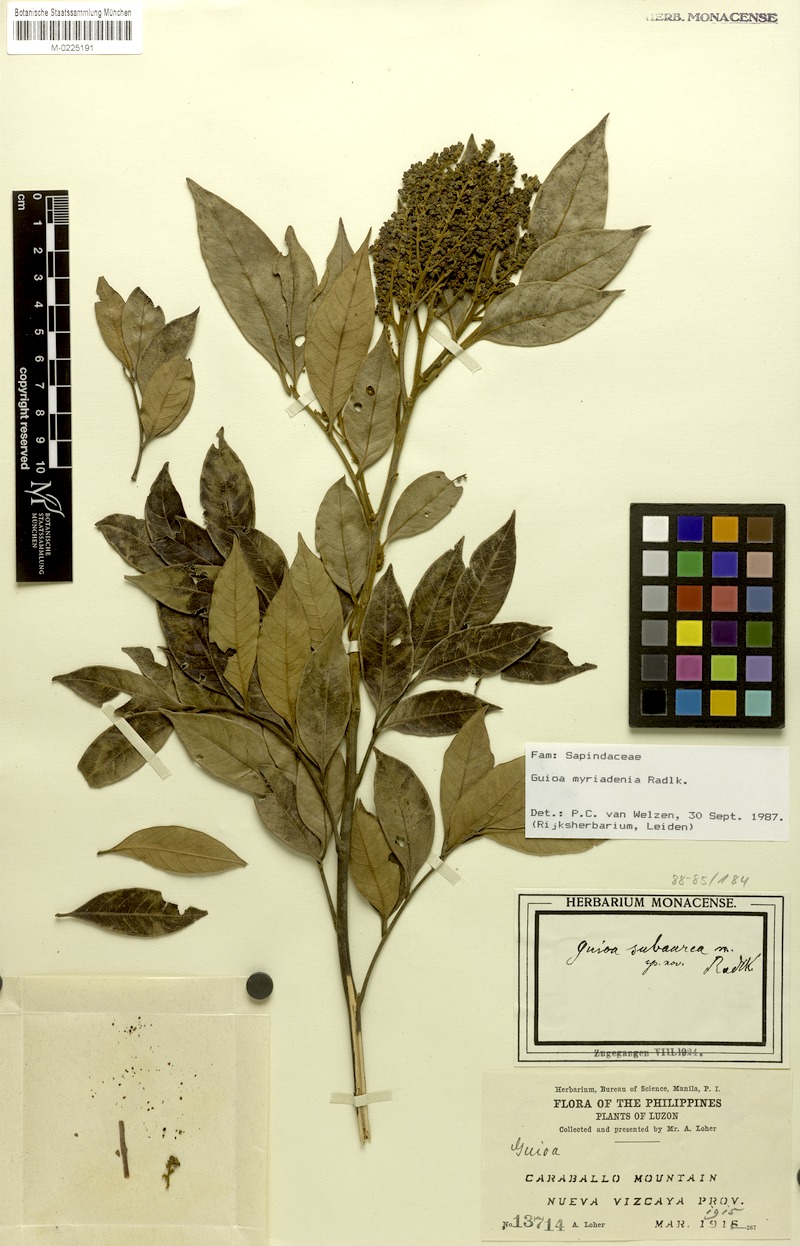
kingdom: Plantae
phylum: Tracheophyta
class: Magnoliopsida
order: Sapindales
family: Sapindaceae
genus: Guioa
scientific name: Guioa myriadenia
